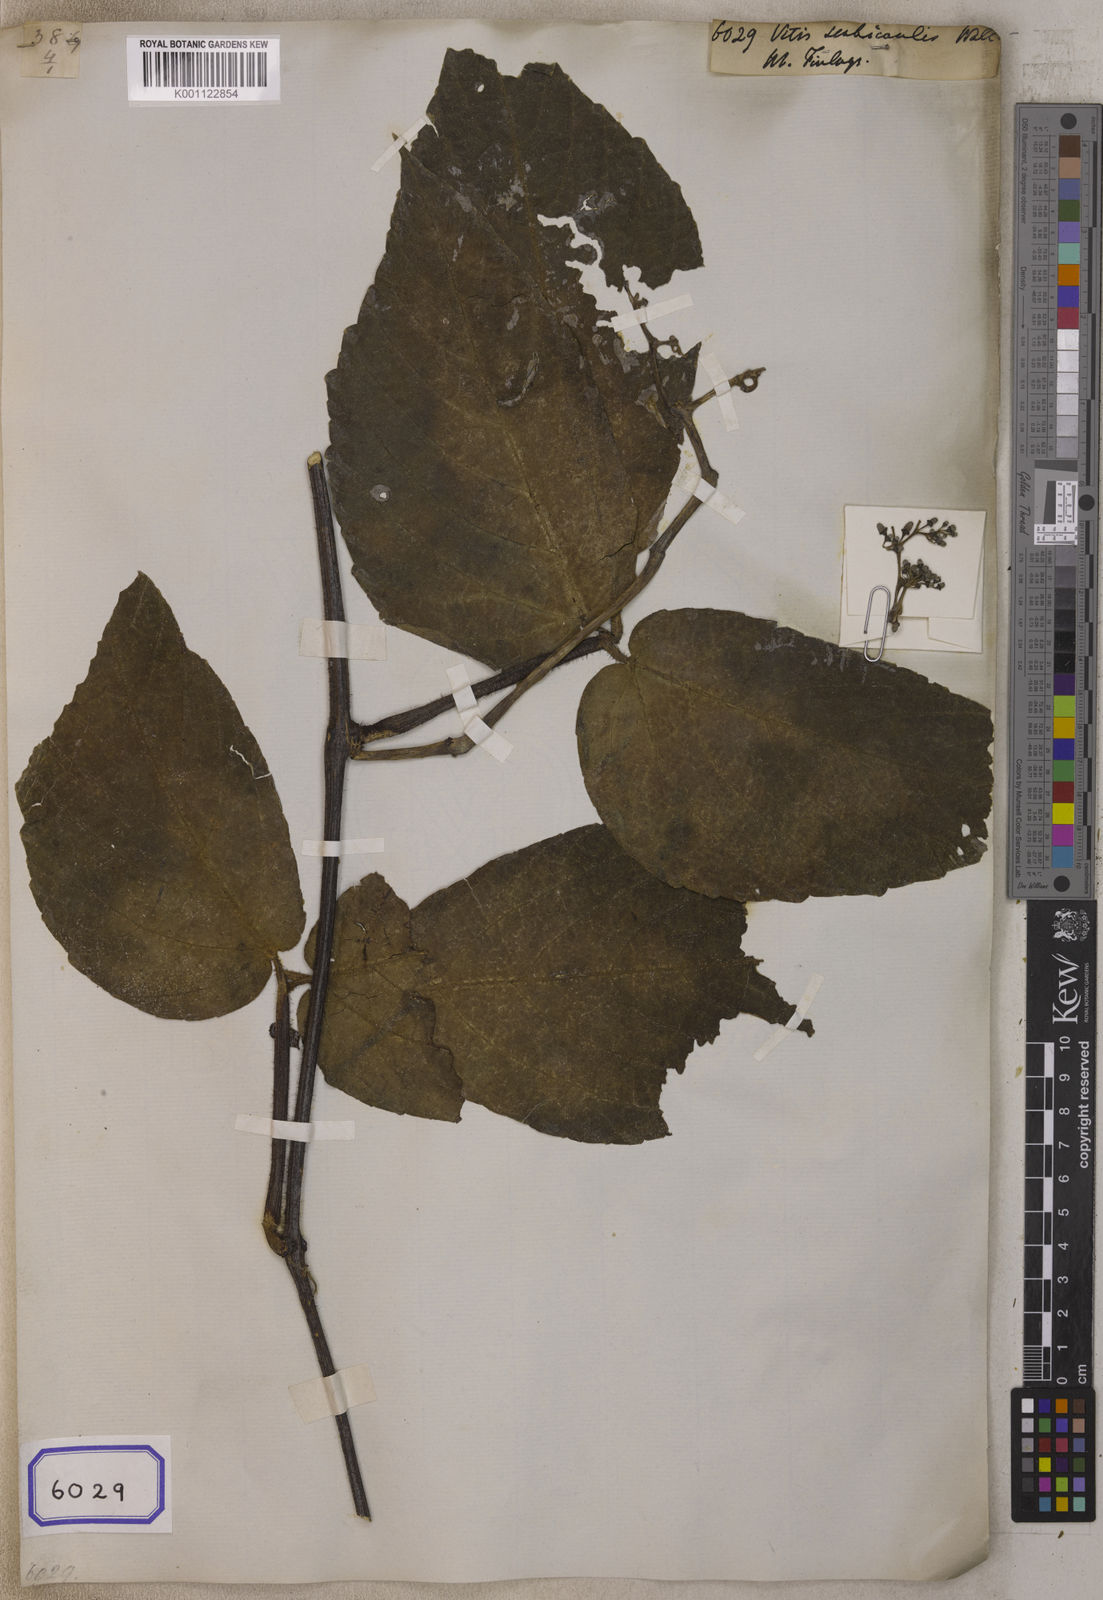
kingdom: Plantae
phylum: Tracheophyta
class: Magnoliopsida
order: Vitales
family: Vitaceae
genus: Causonis
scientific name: Causonis trifolia
